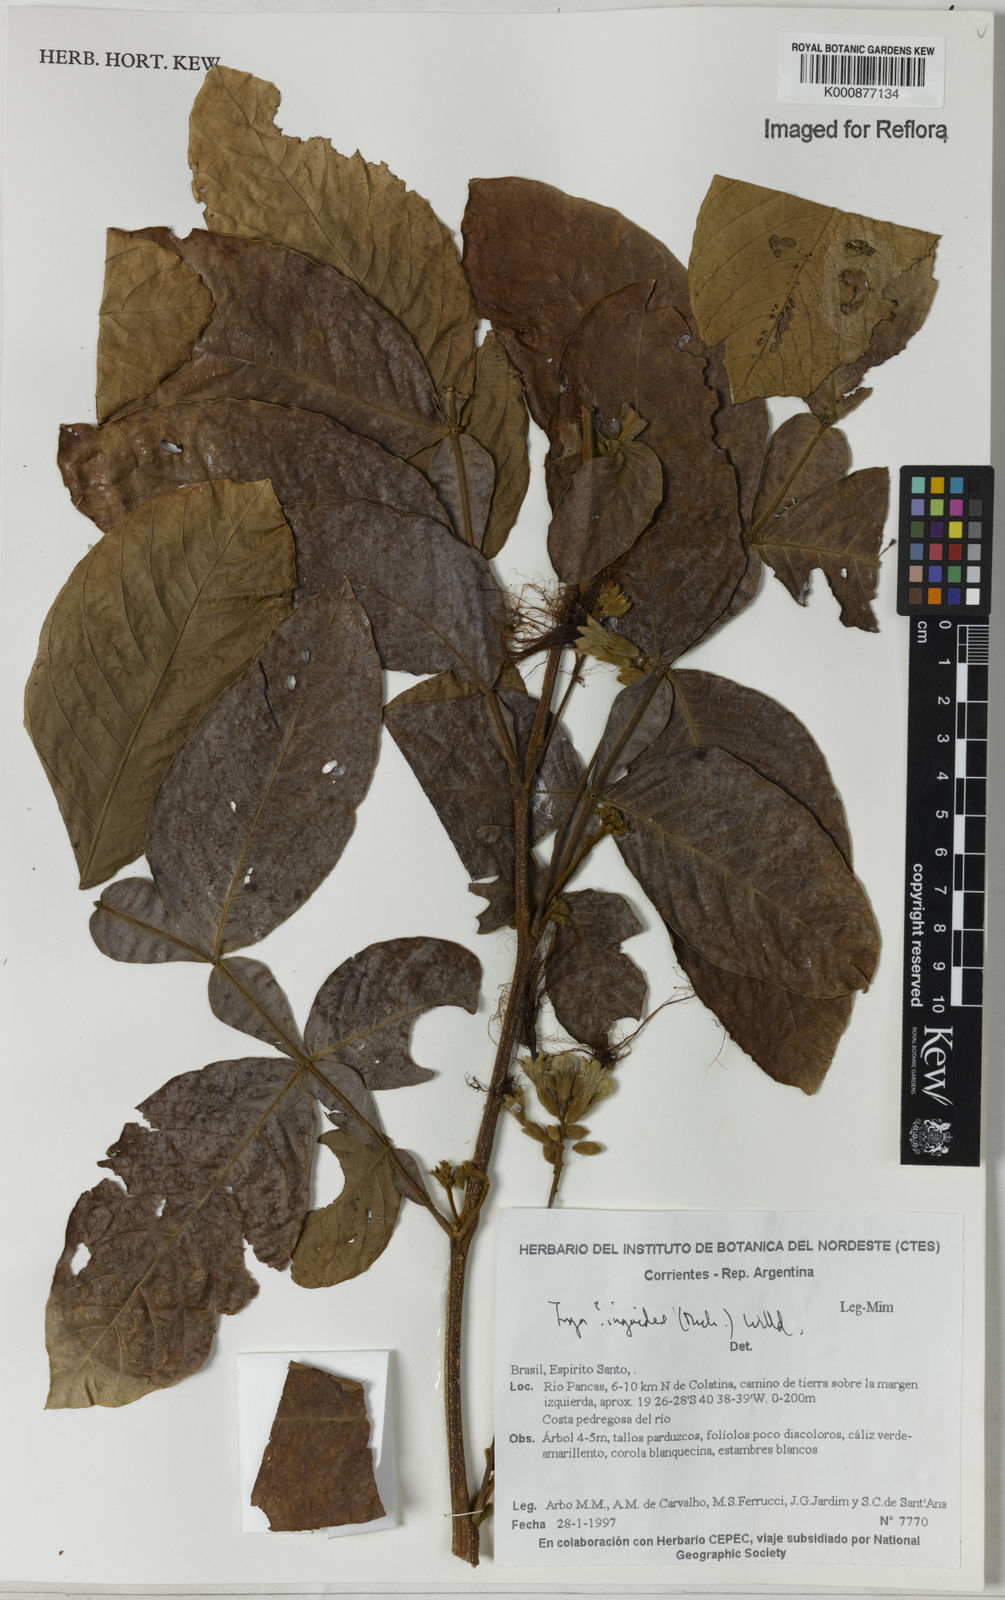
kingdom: Plantae
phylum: Tracheophyta
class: Magnoliopsida
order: Fabales
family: Fabaceae
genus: Inga
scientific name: Inga ingoides
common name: Spanish ash
